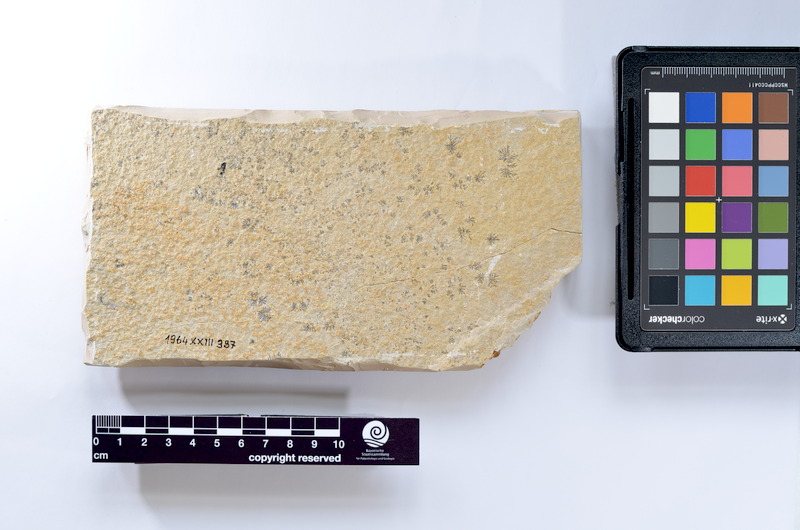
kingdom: Animalia
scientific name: Animalia
